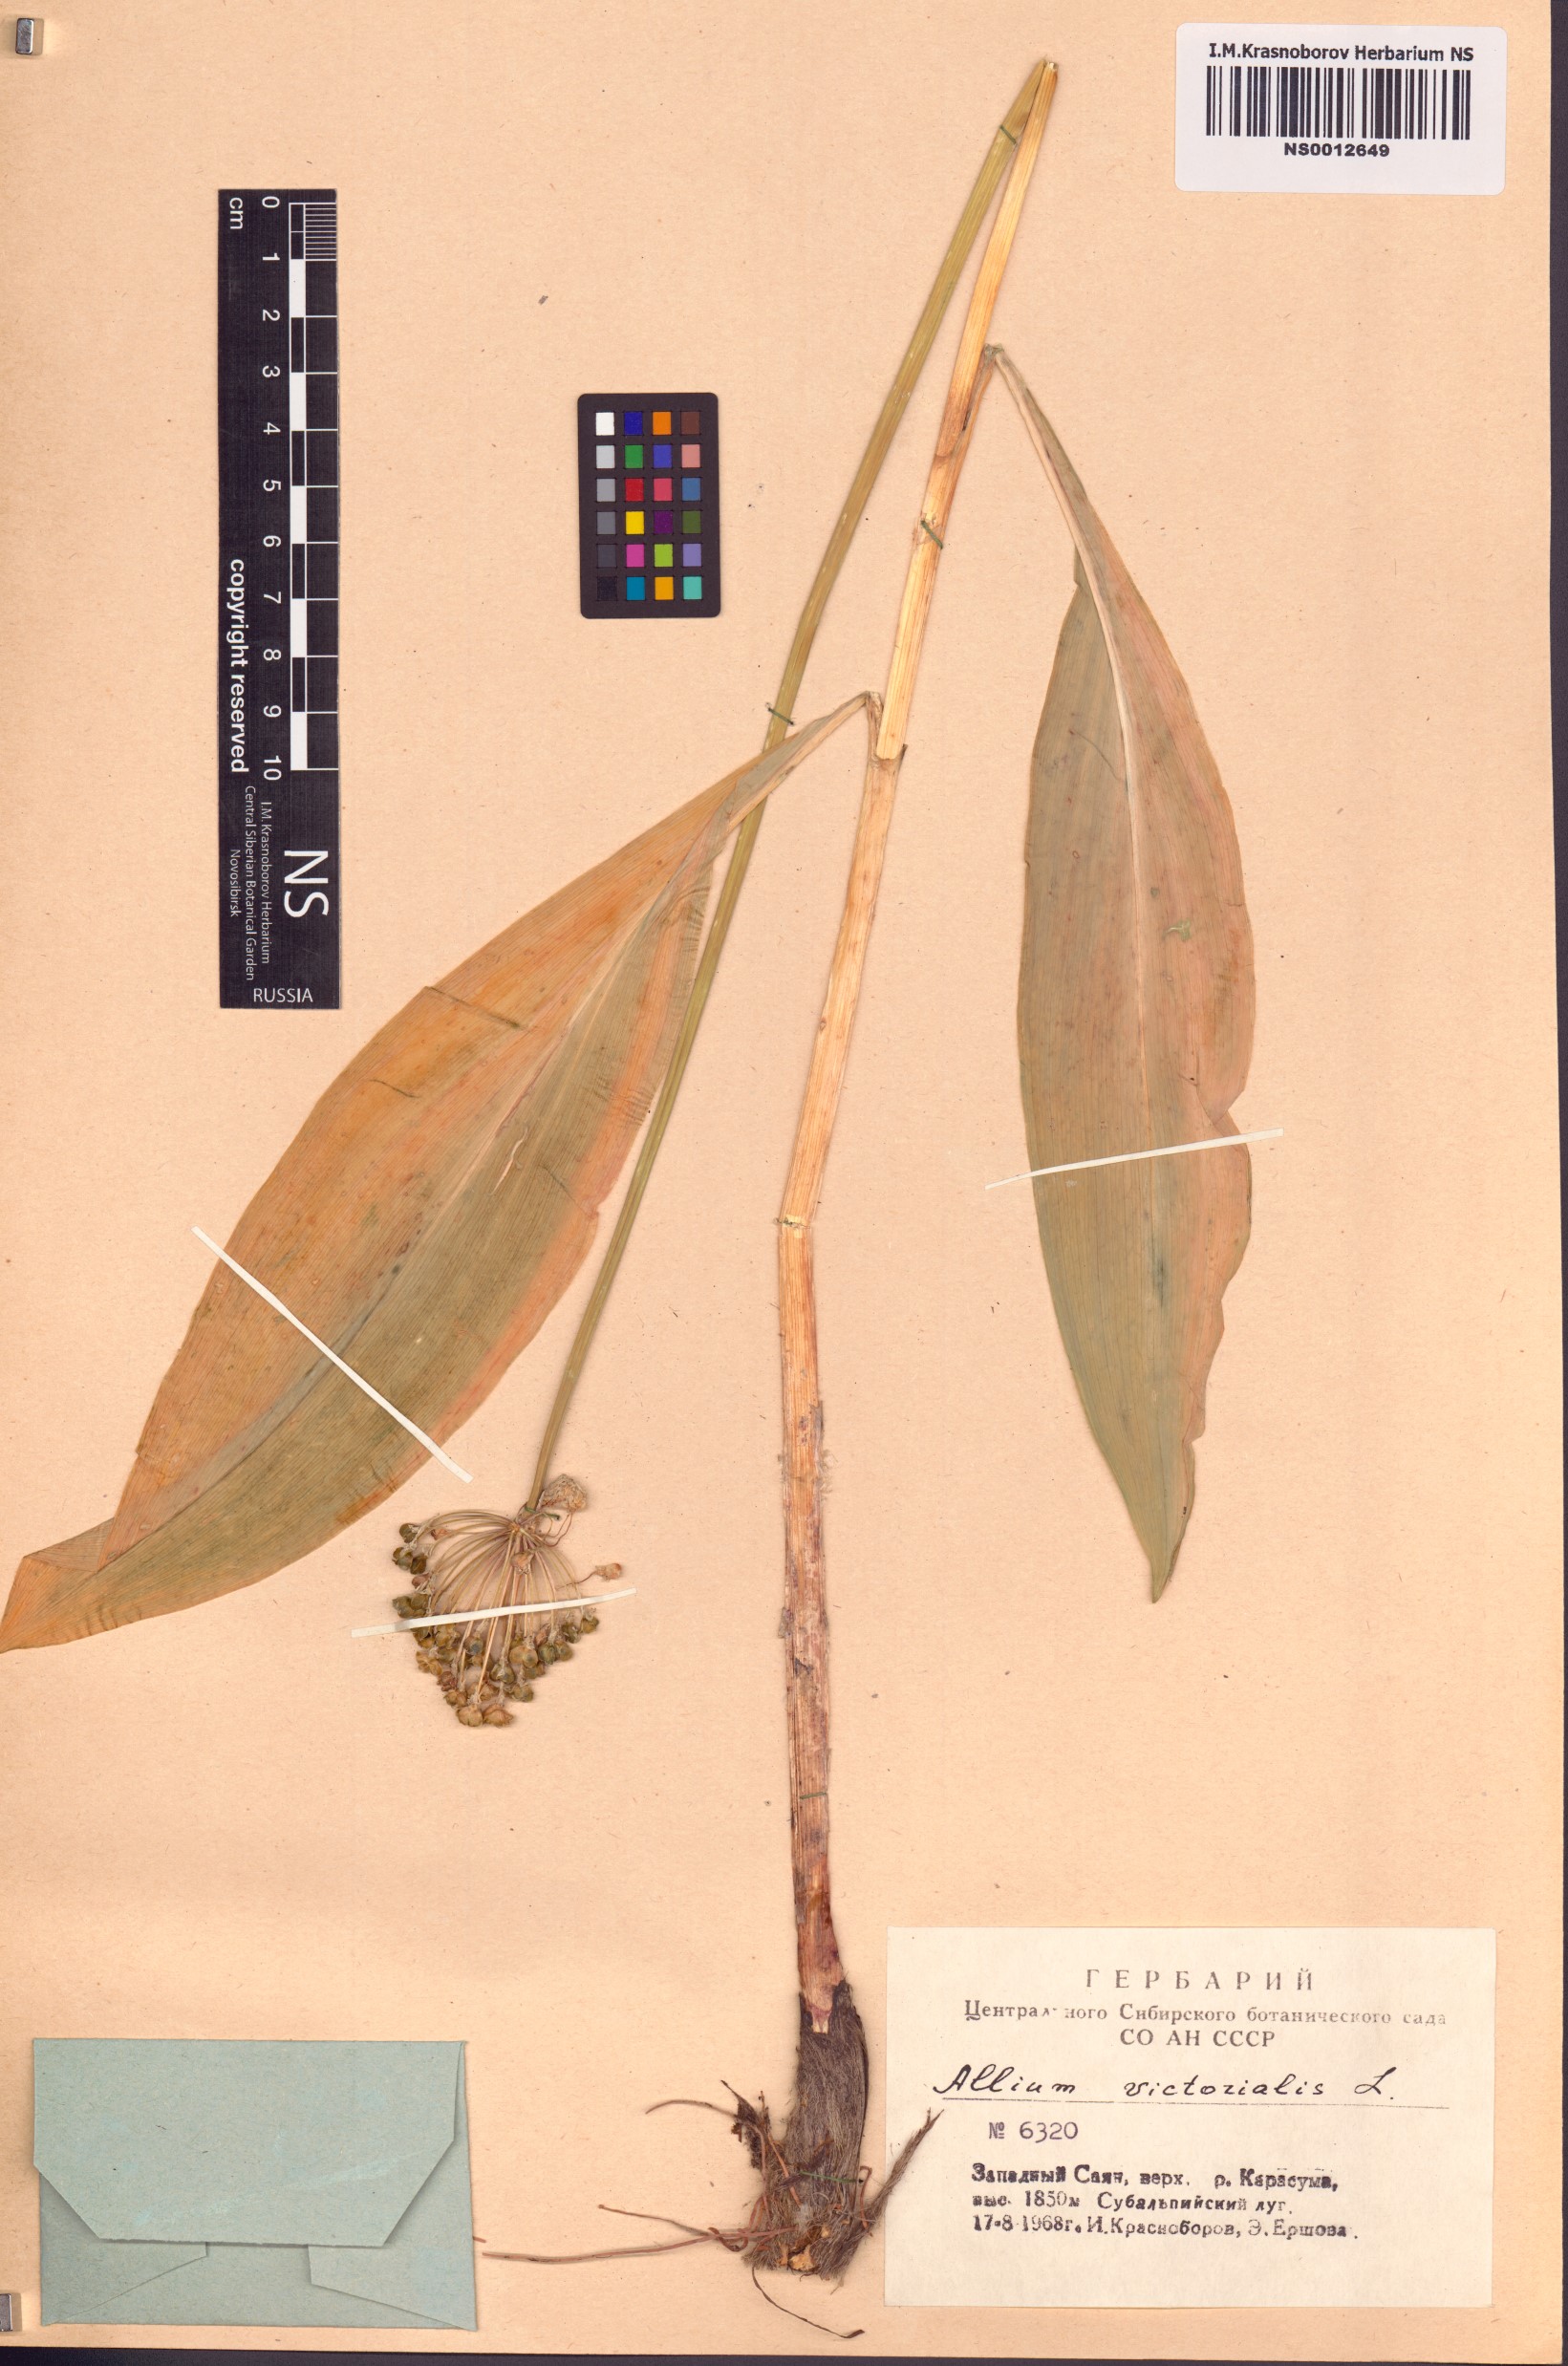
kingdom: Plantae
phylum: Tracheophyta
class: Liliopsida
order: Asparagales
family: Amaryllidaceae
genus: Allium
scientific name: Allium microdictyon
